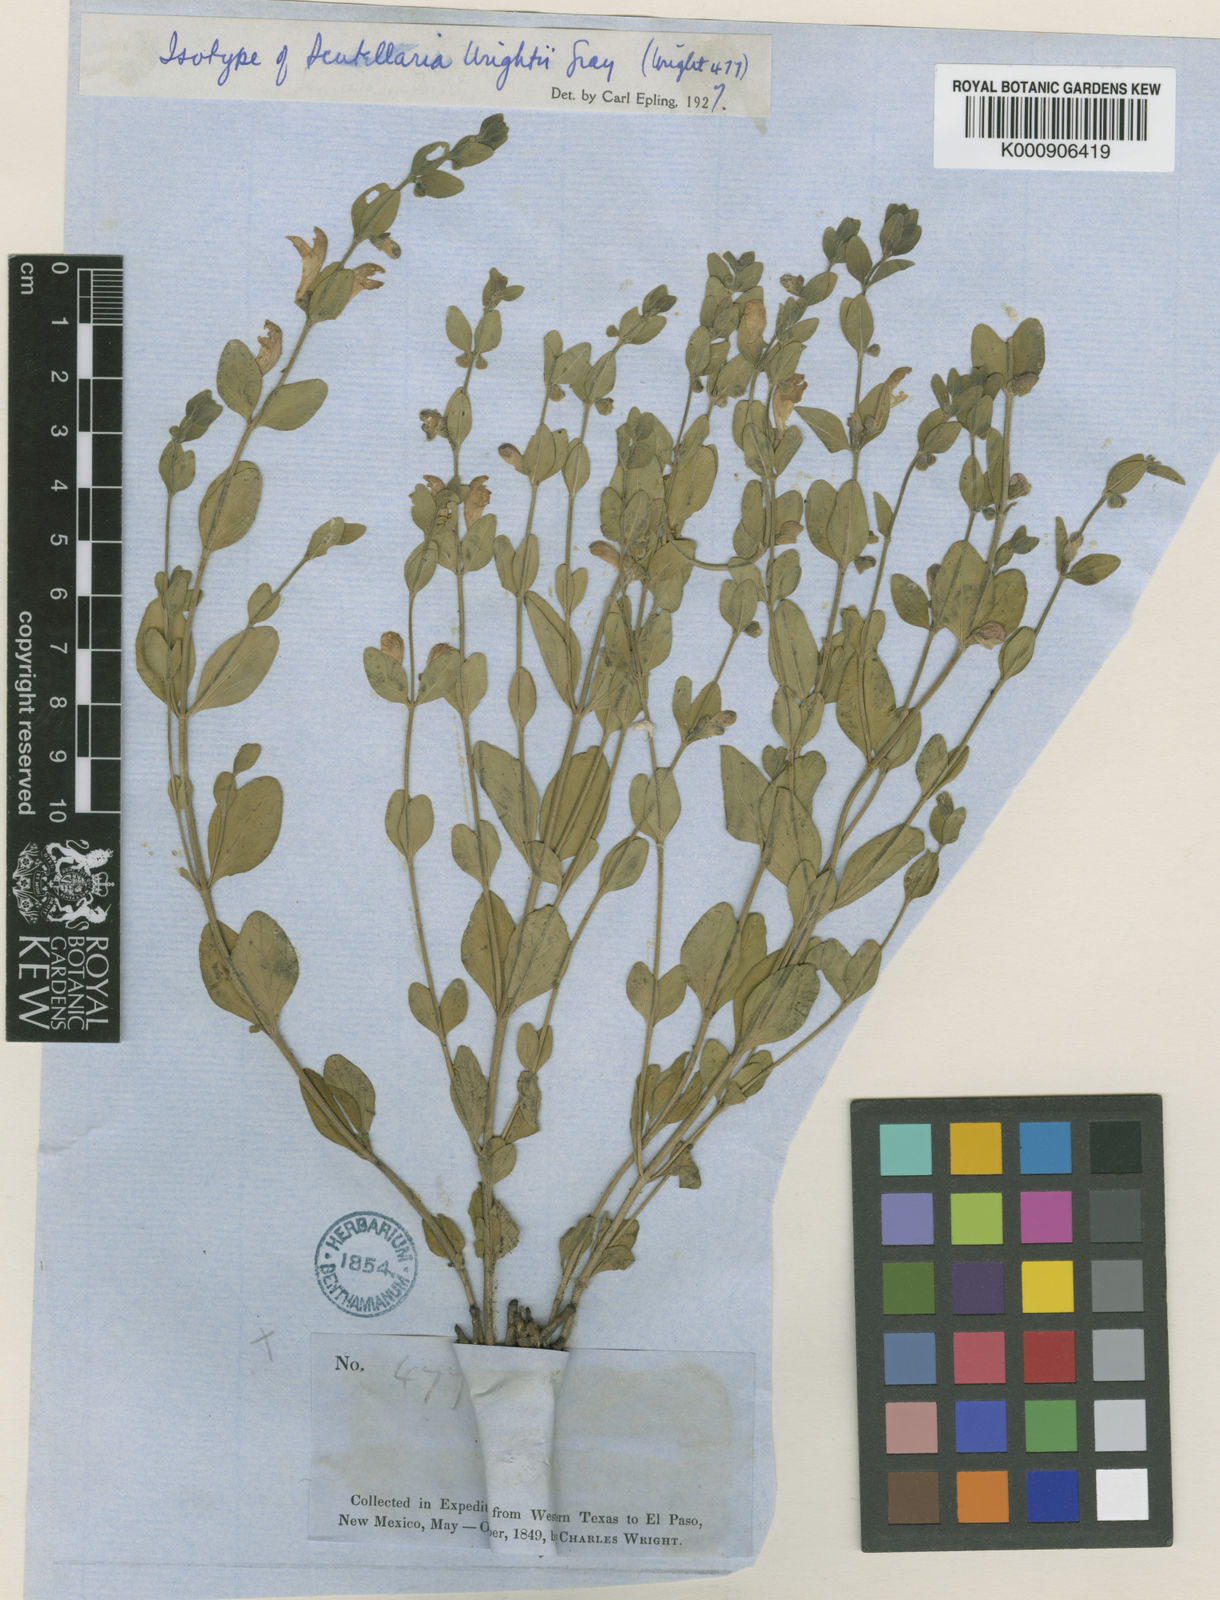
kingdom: Plantae
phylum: Tracheophyta
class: Magnoliopsida
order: Lamiales
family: Lamiaceae
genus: Scutellaria
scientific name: Scutellaria wrightii
